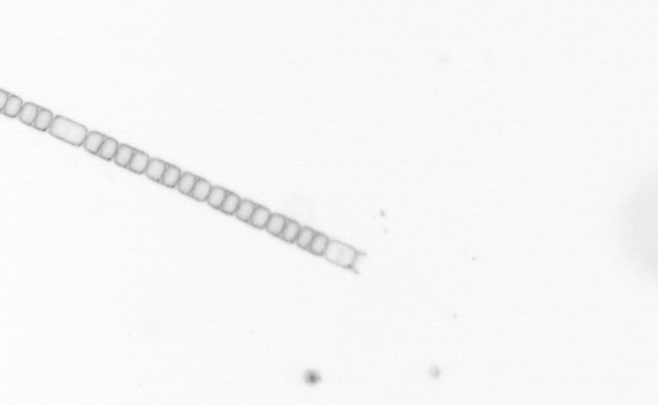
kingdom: Chromista
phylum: Ochrophyta
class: Bacillariophyceae
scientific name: Bacillariophyceae
